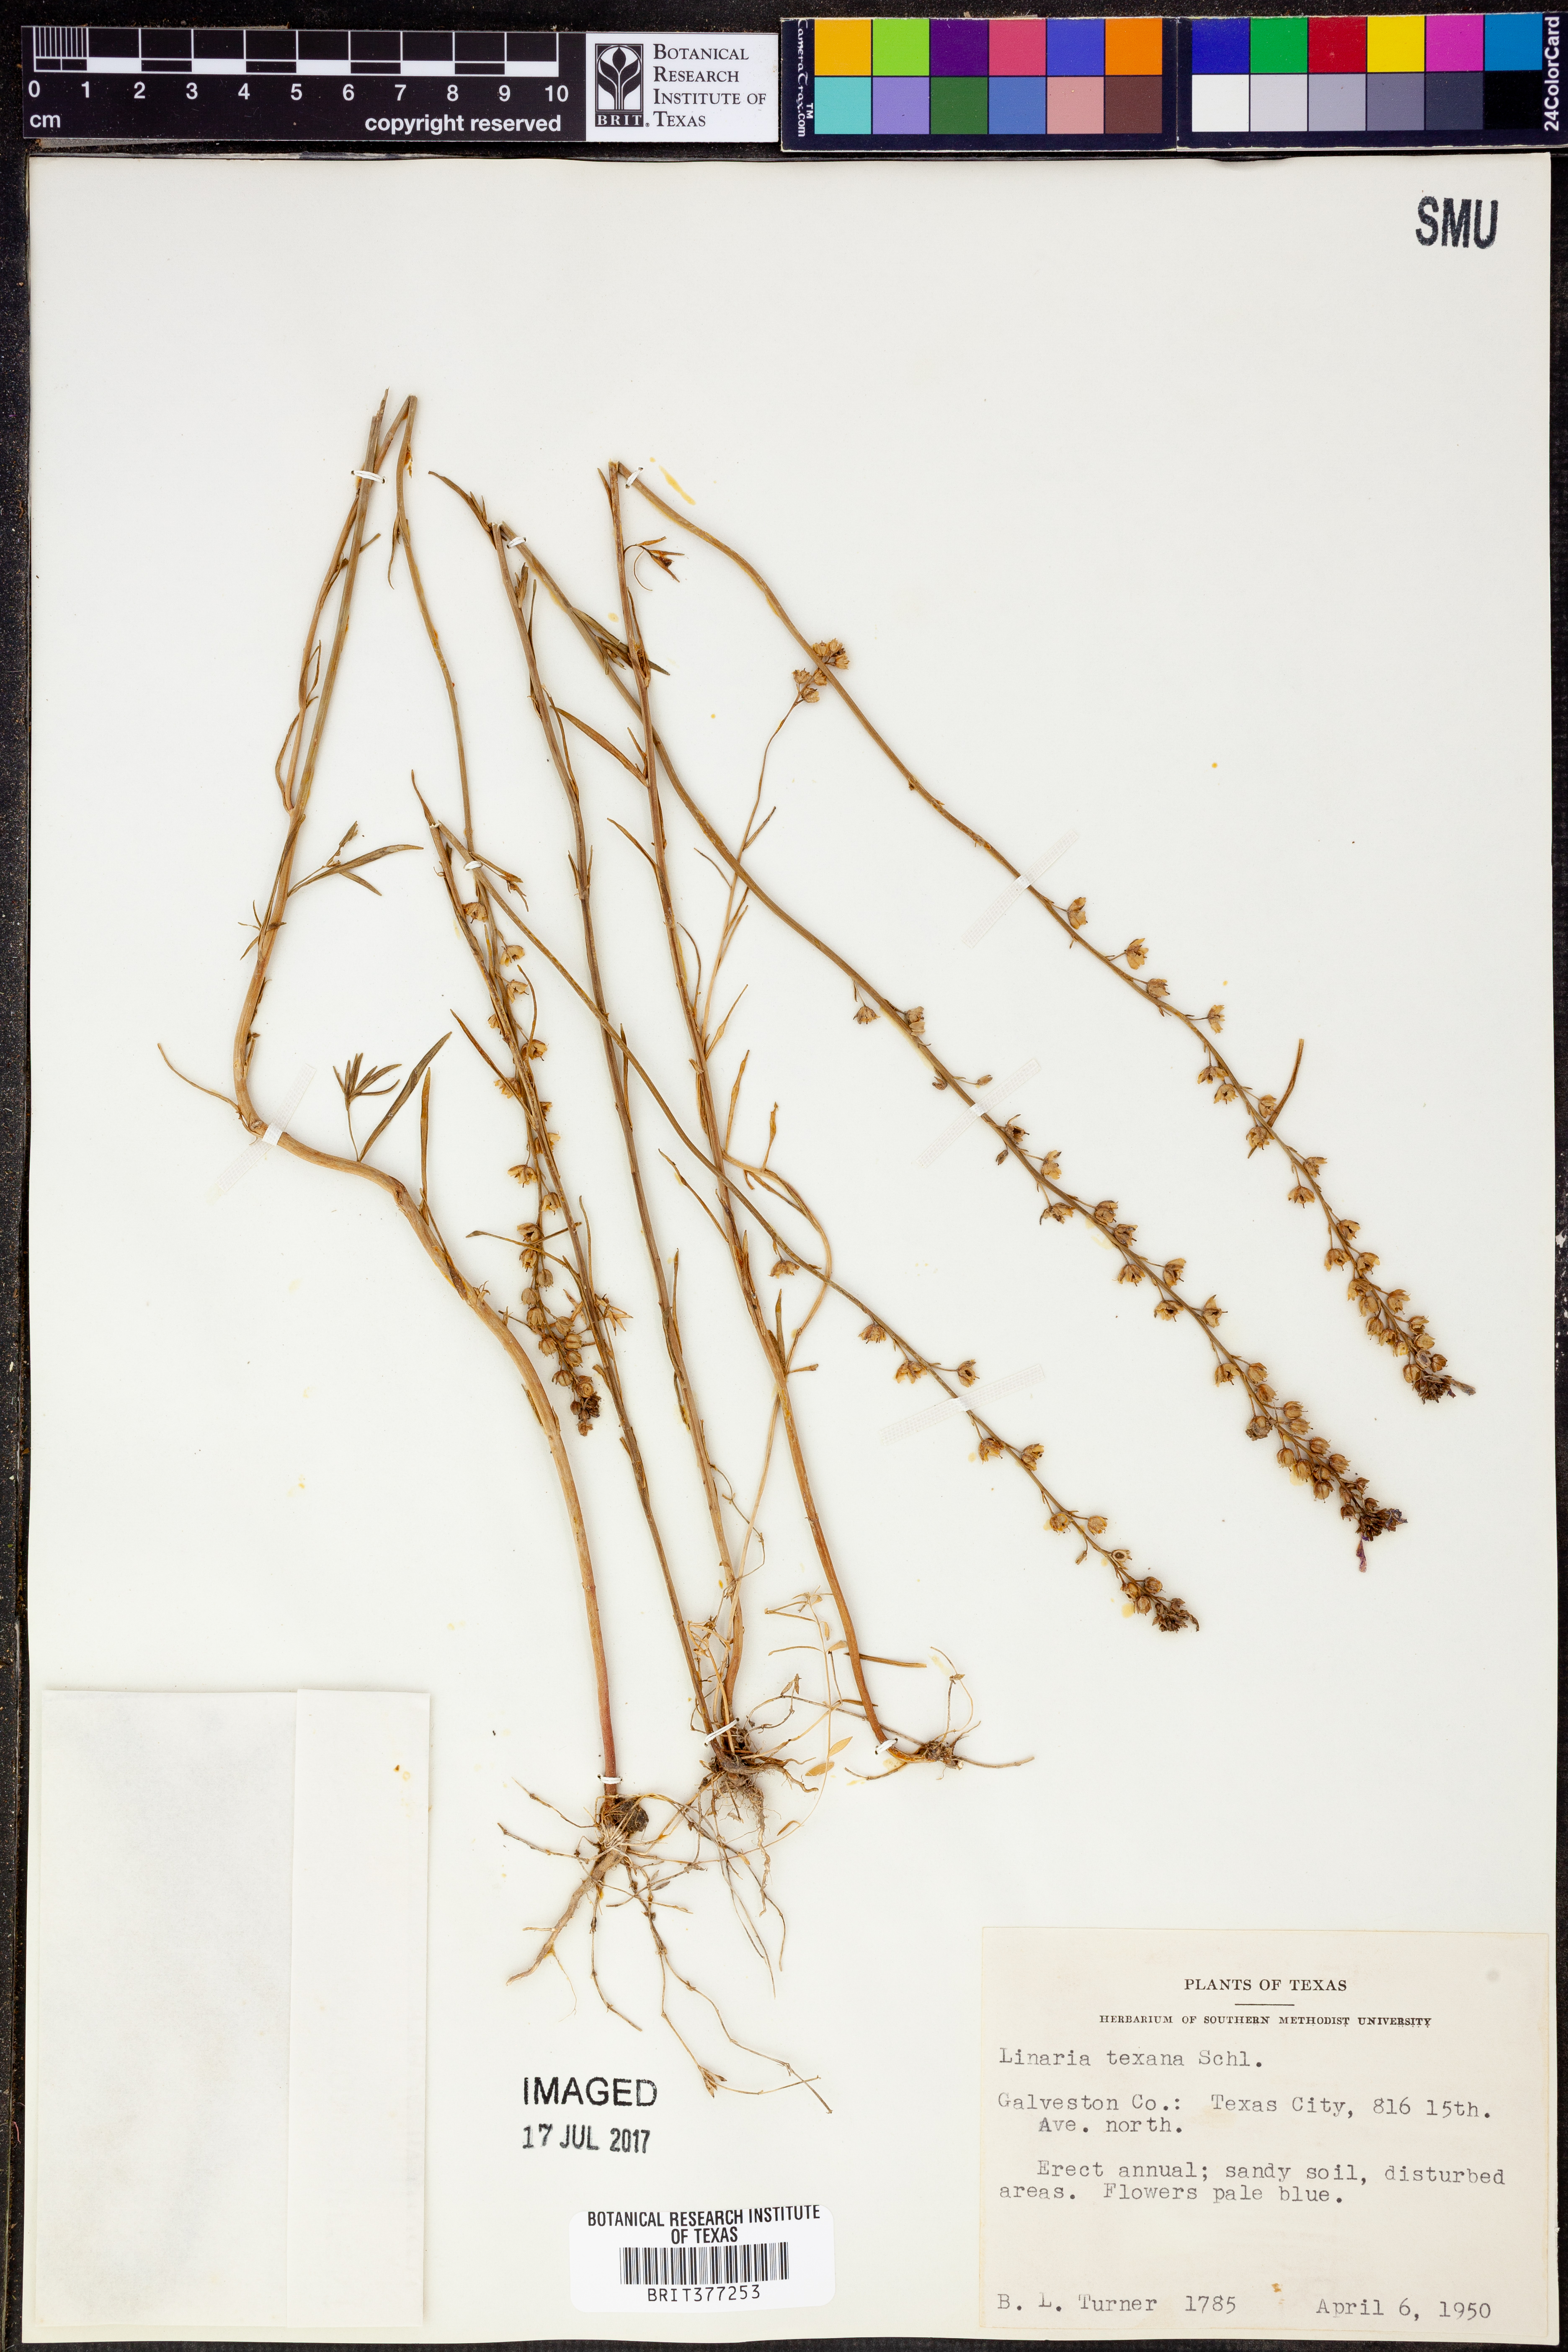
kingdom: Plantae
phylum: Tracheophyta
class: Magnoliopsida
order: Lamiales
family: Plantaginaceae
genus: Nuttallanthus
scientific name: Nuttallanthus texanus
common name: Texas toadflax
